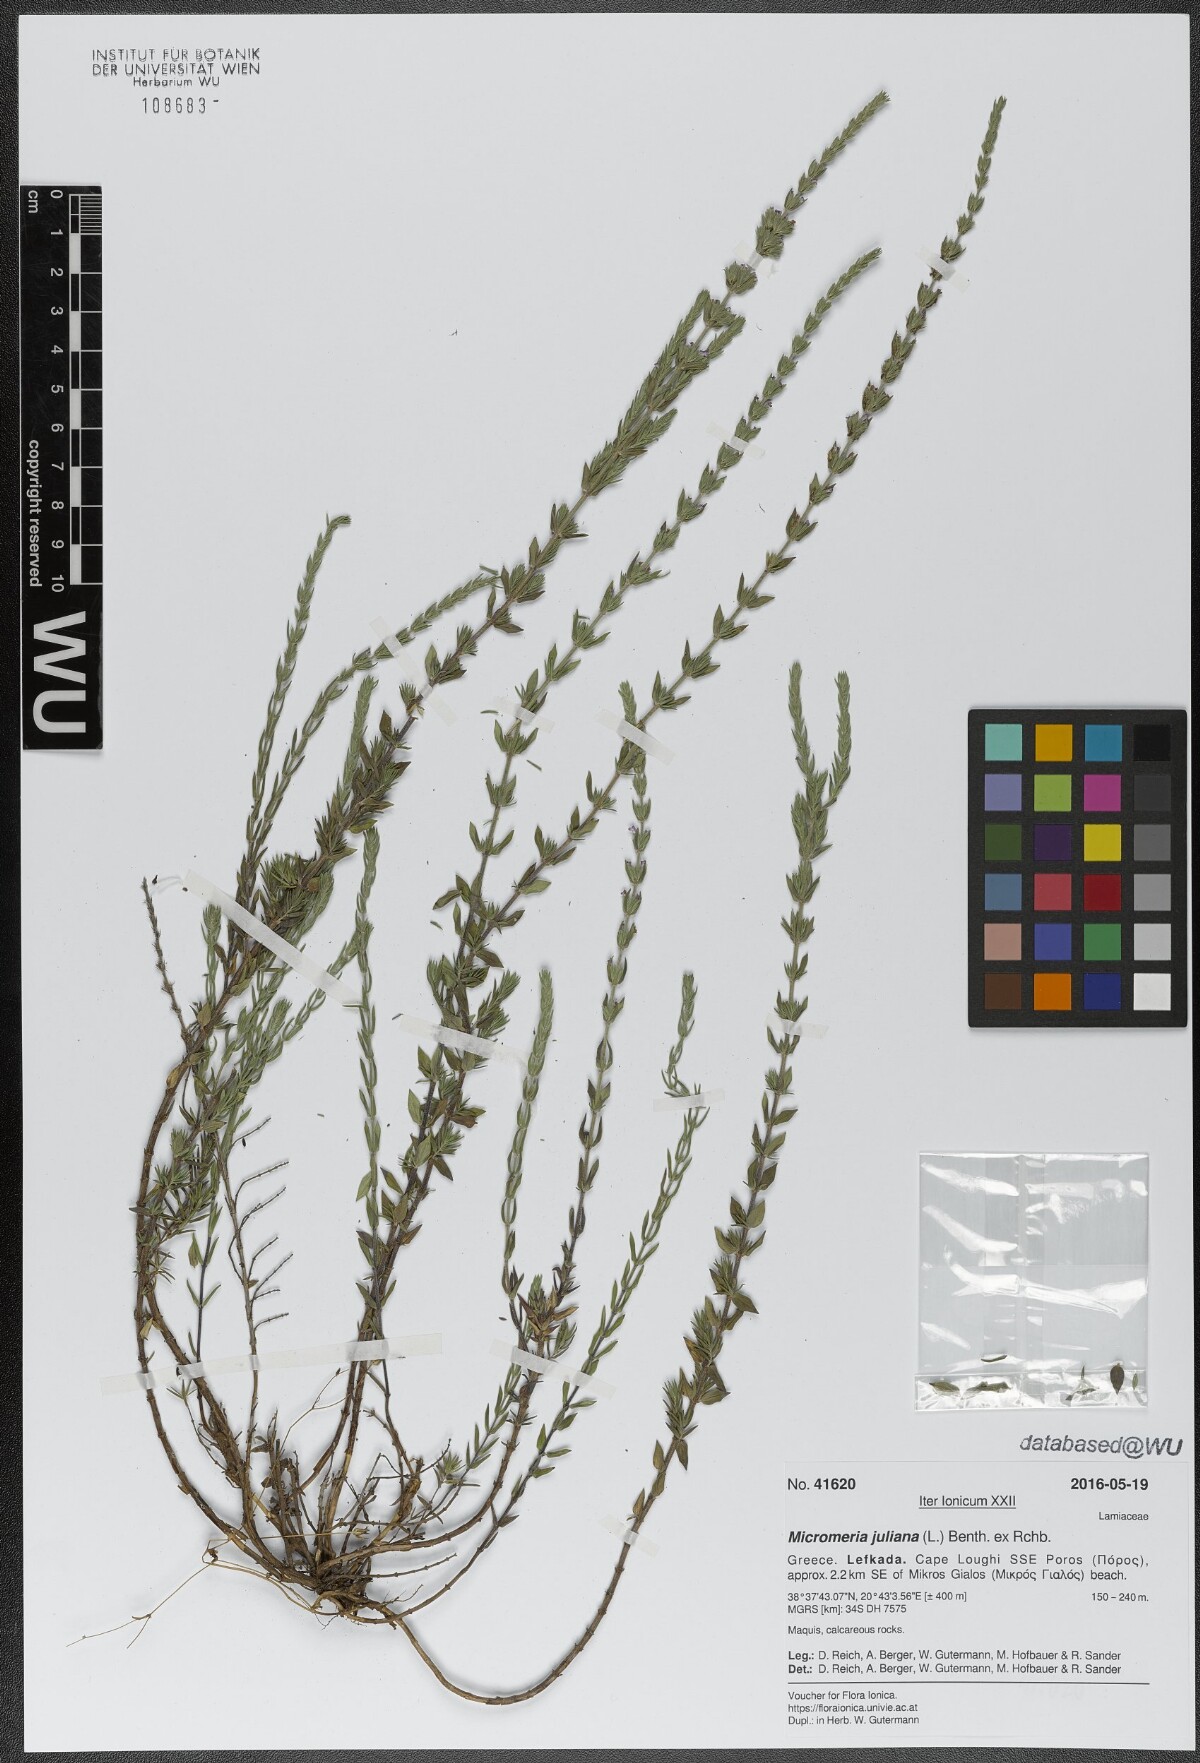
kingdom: Plantae
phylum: Tracheophyta
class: Magnoliopsida
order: Lamiales
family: Lamiaceae
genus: Micromeria
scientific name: Micromeria juliana
